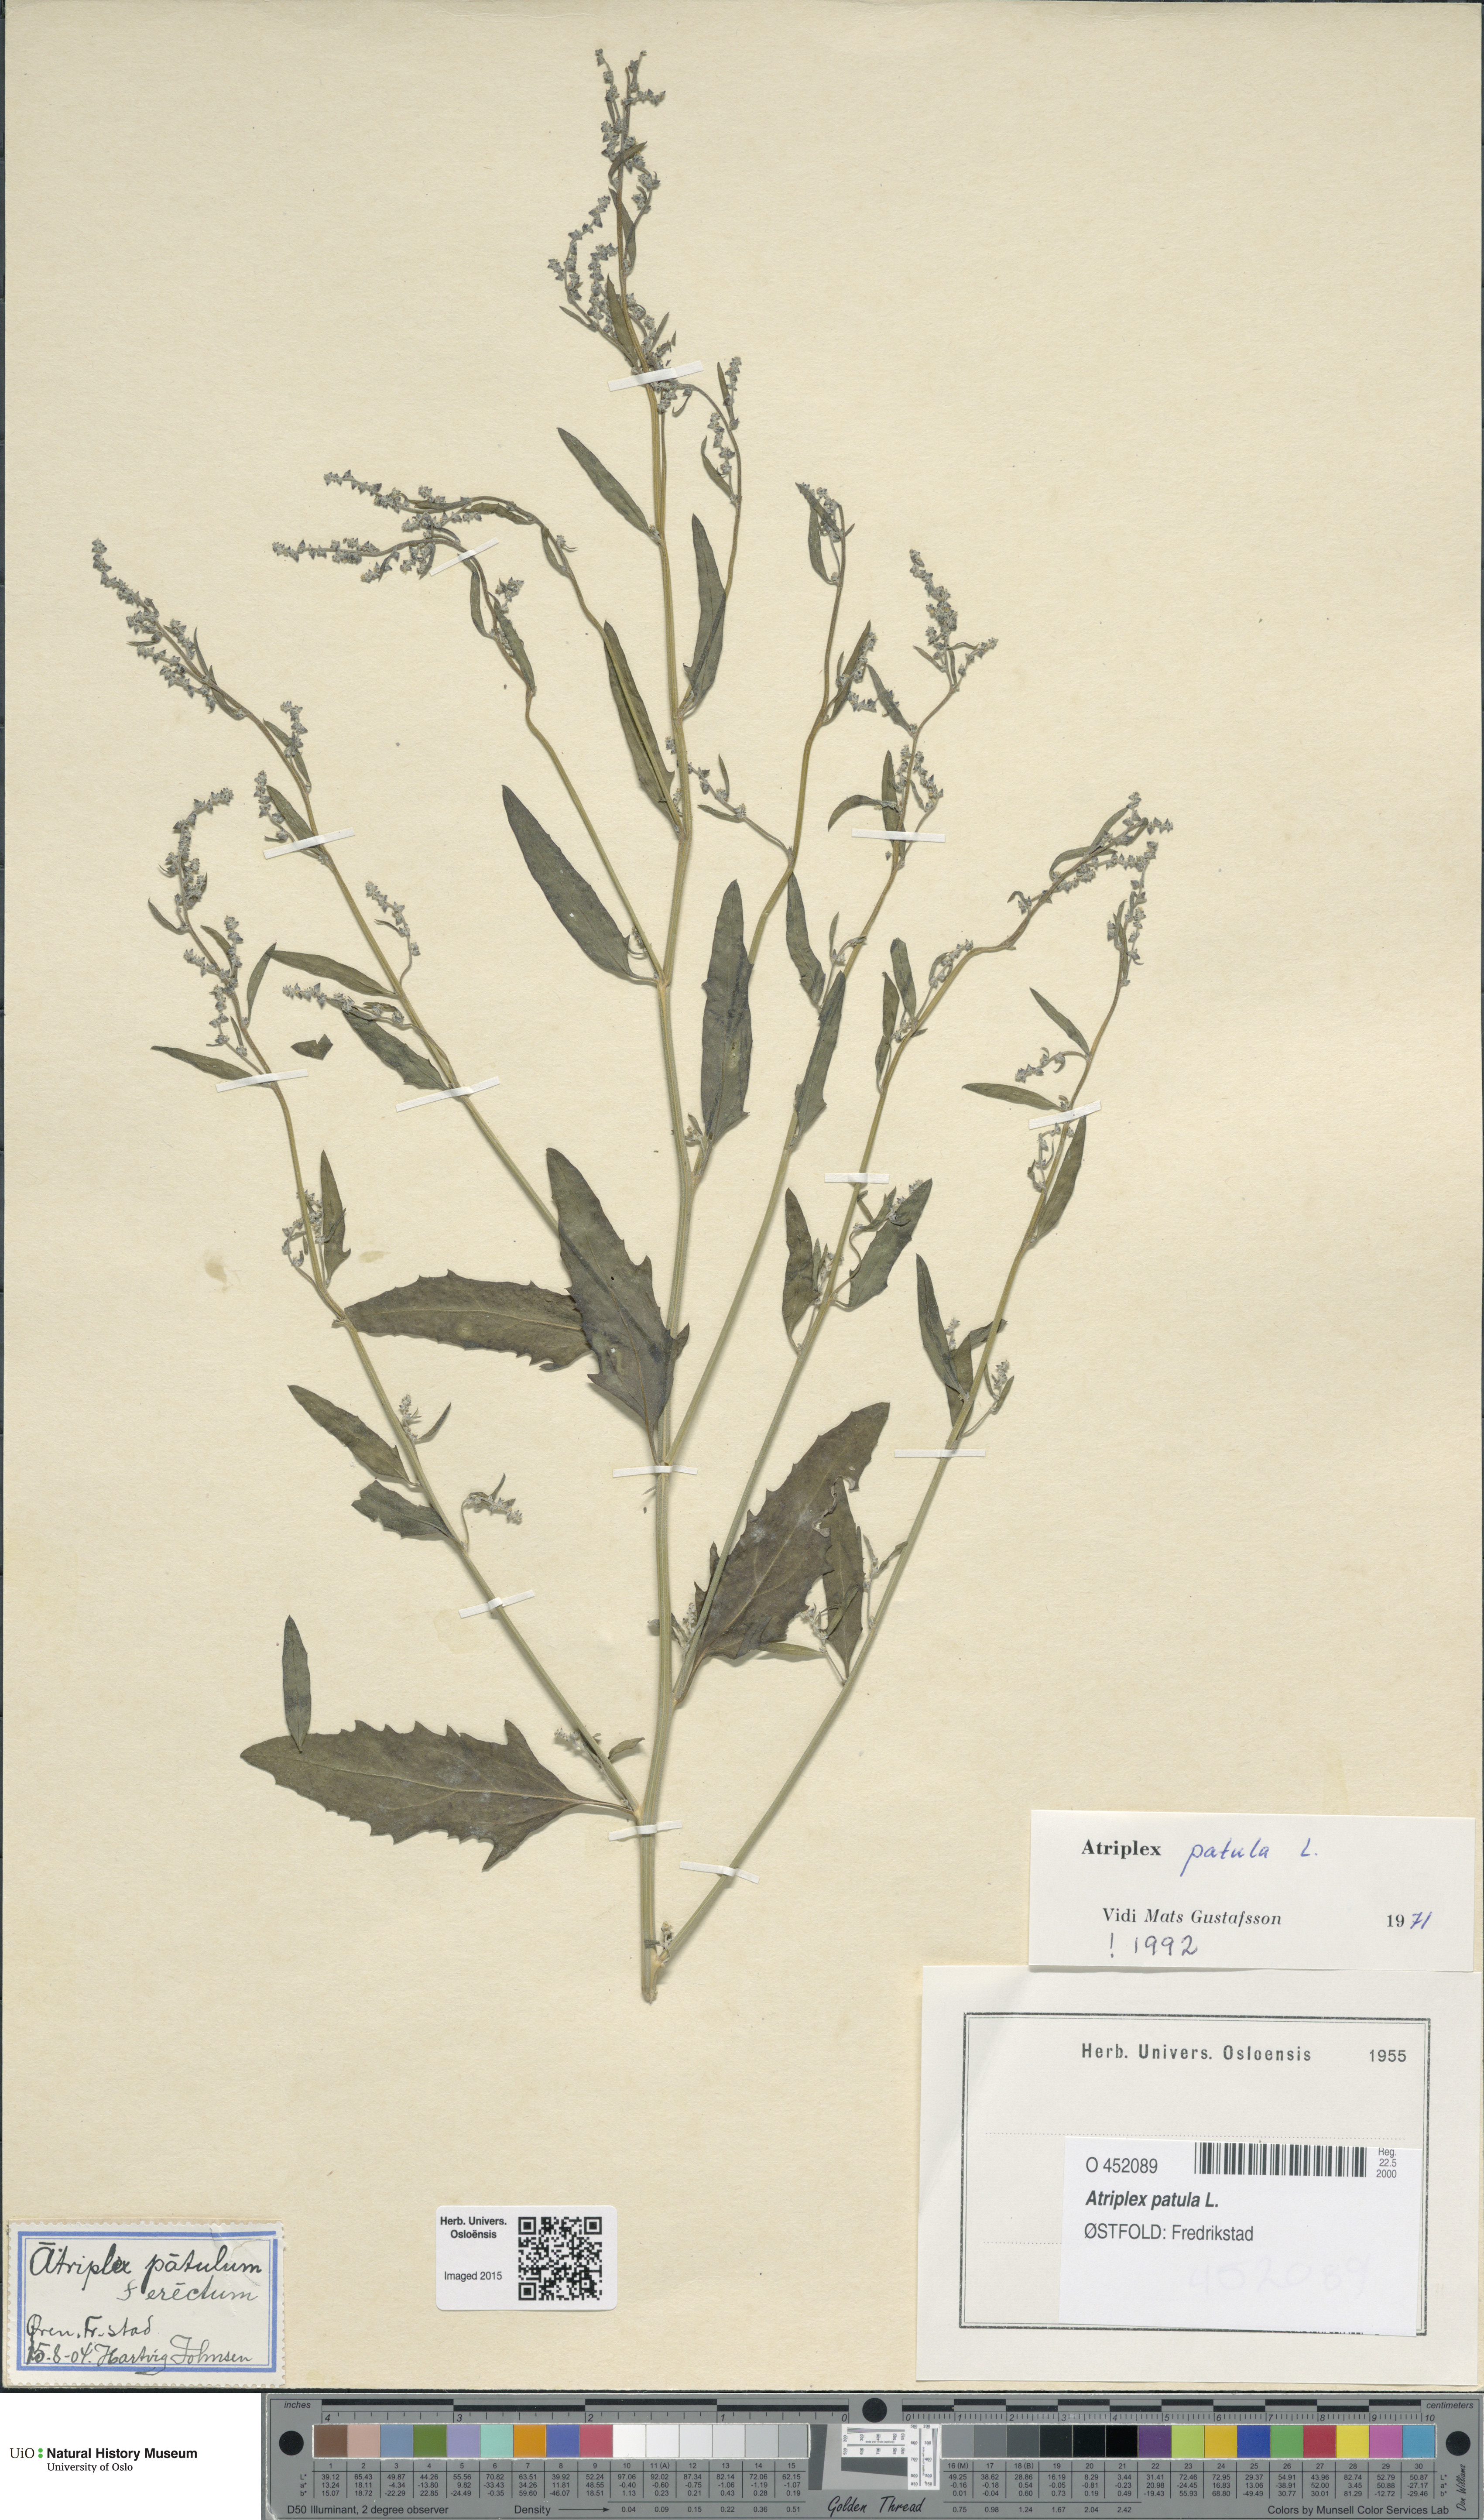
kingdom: Plantae
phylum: Tracheophyta
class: Magnoliopsida
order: Caryophyllales
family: Amaranthaceae
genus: Atriplex
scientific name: Atriplex patula
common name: Common orache
